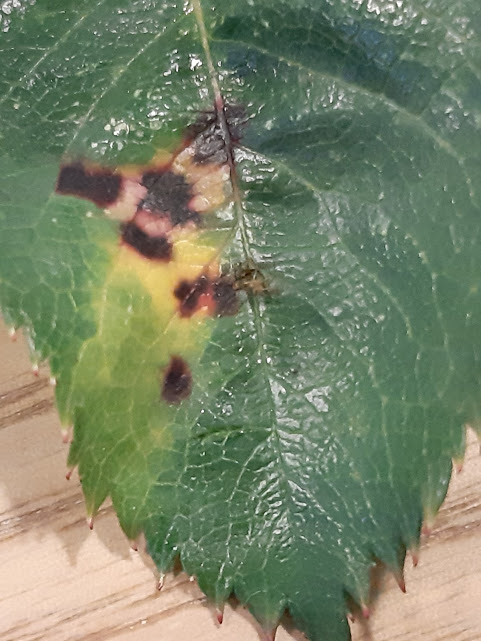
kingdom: Fungi
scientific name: Fungi
